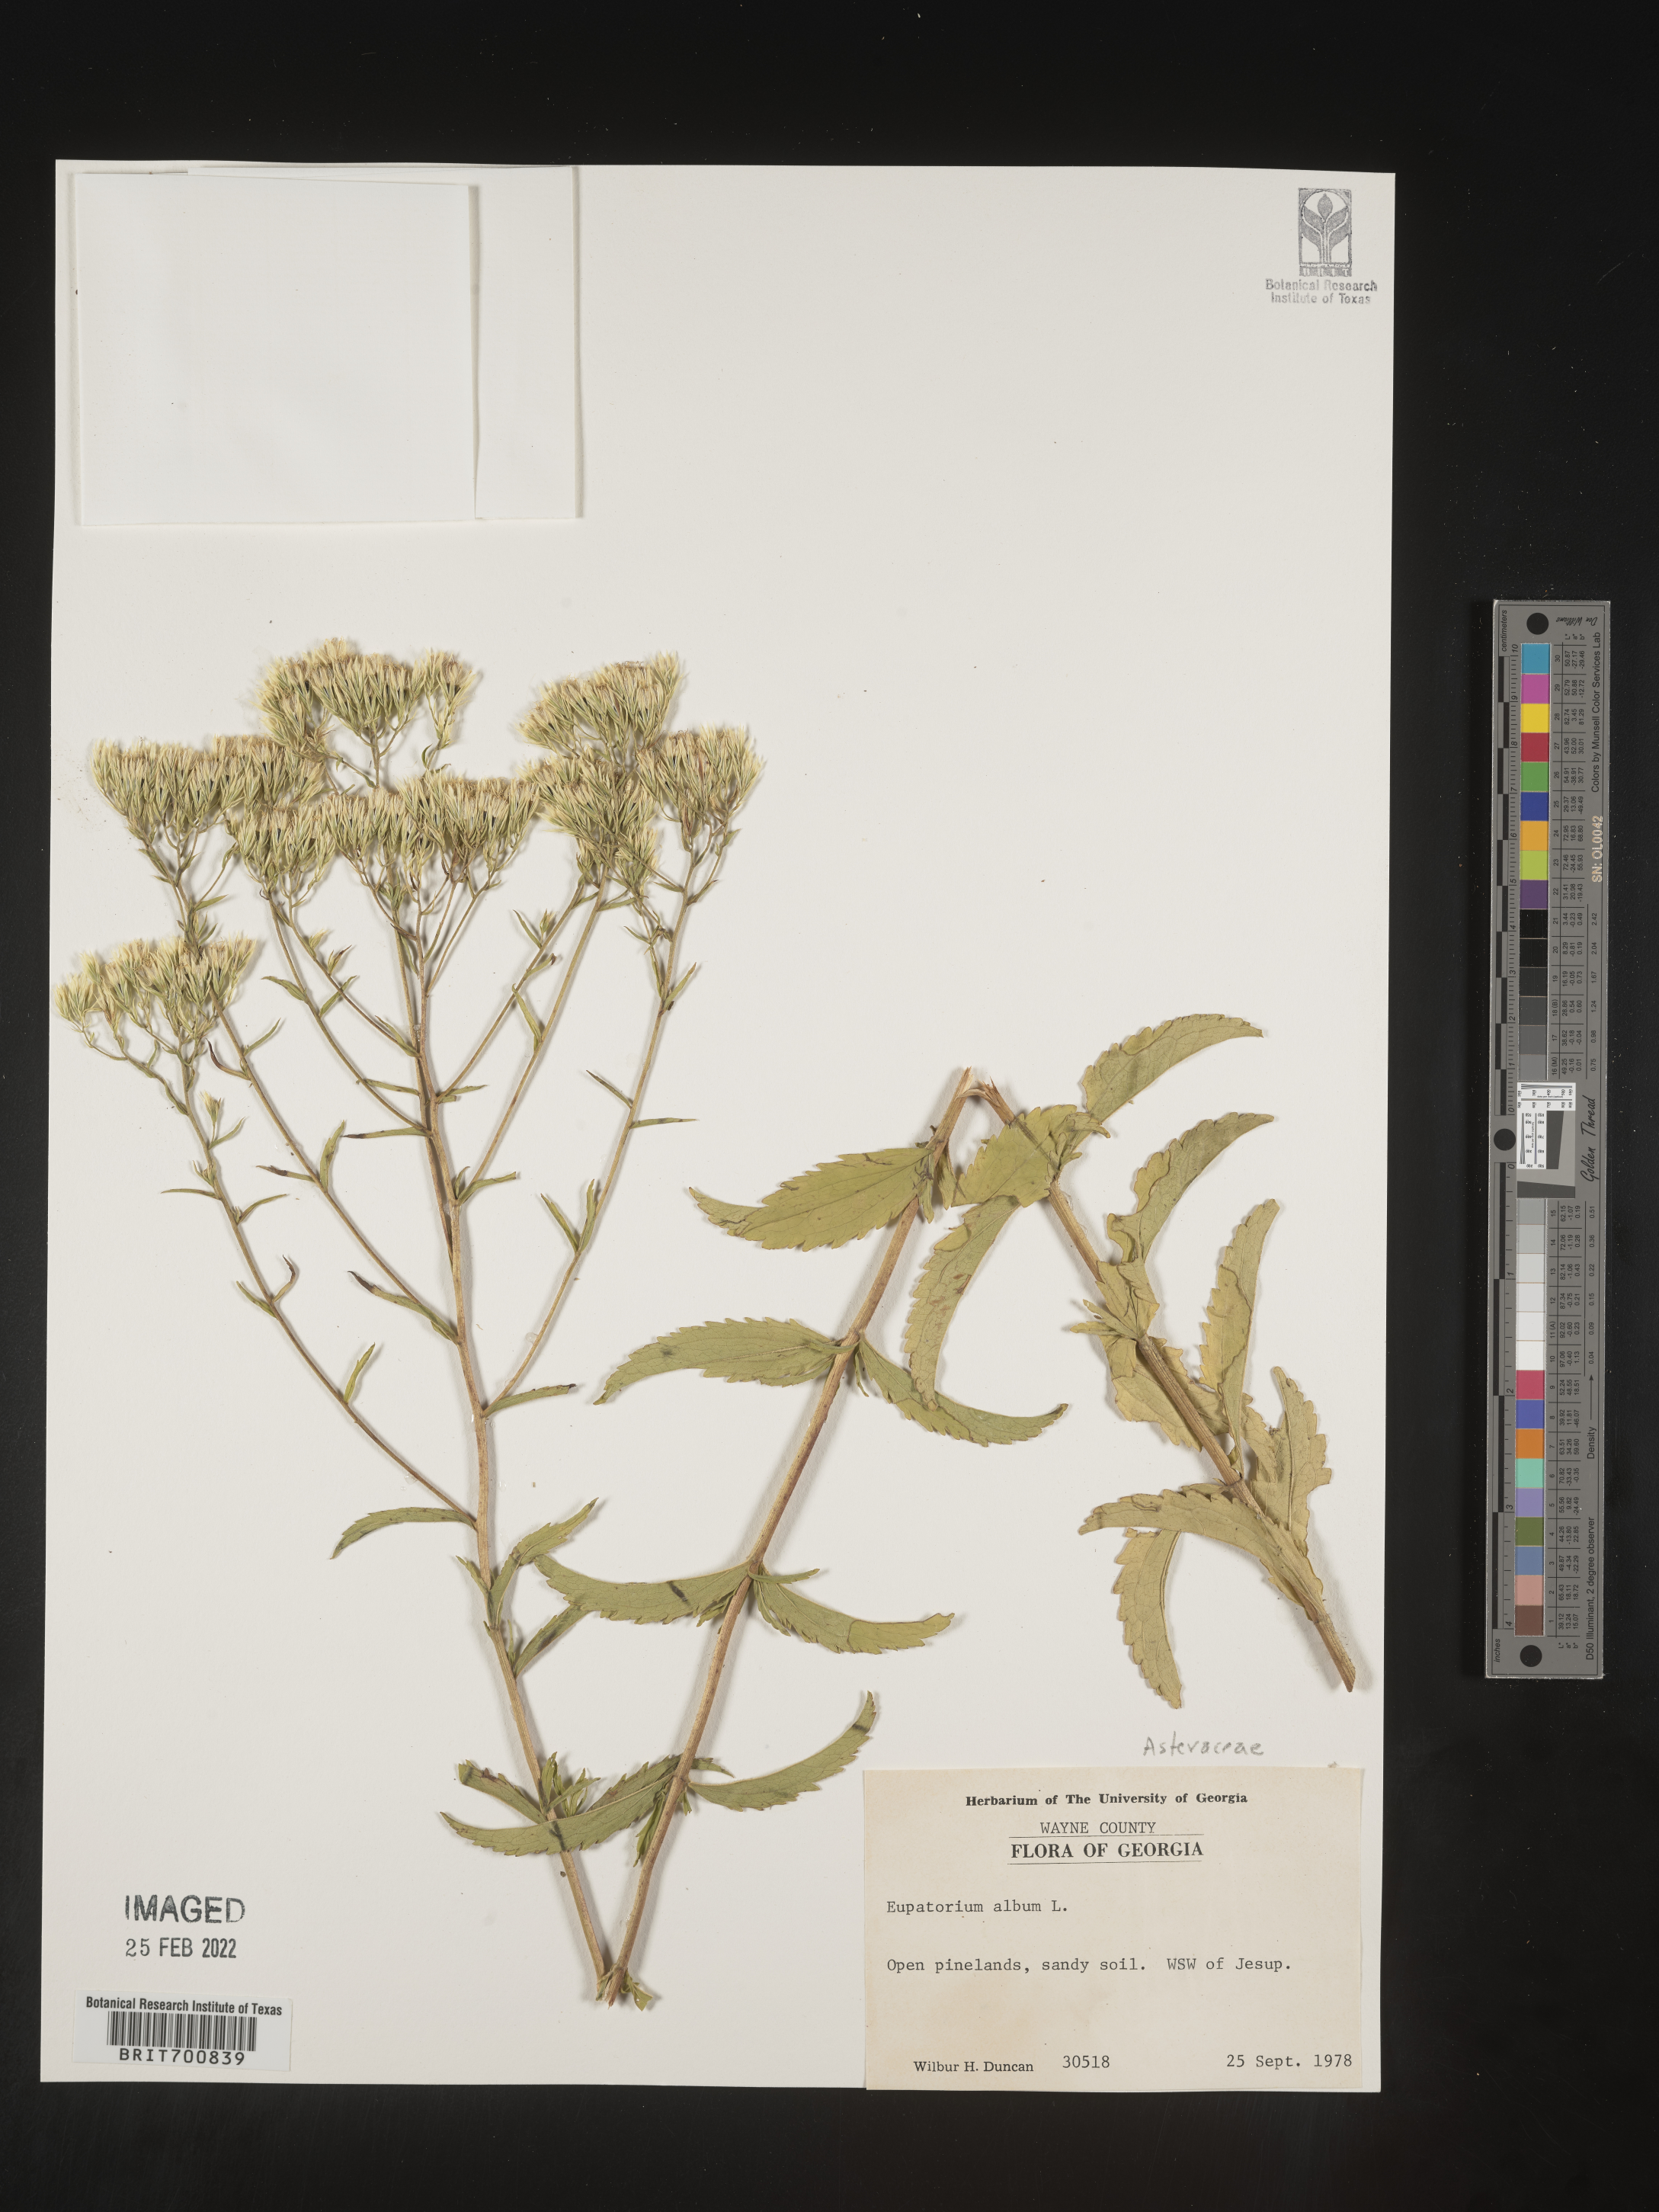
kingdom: Plantae
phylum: Tracheophyta
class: Magnoliopsida
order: Asterales
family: Asteraceae
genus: Eupatorium
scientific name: Eupatorium album
